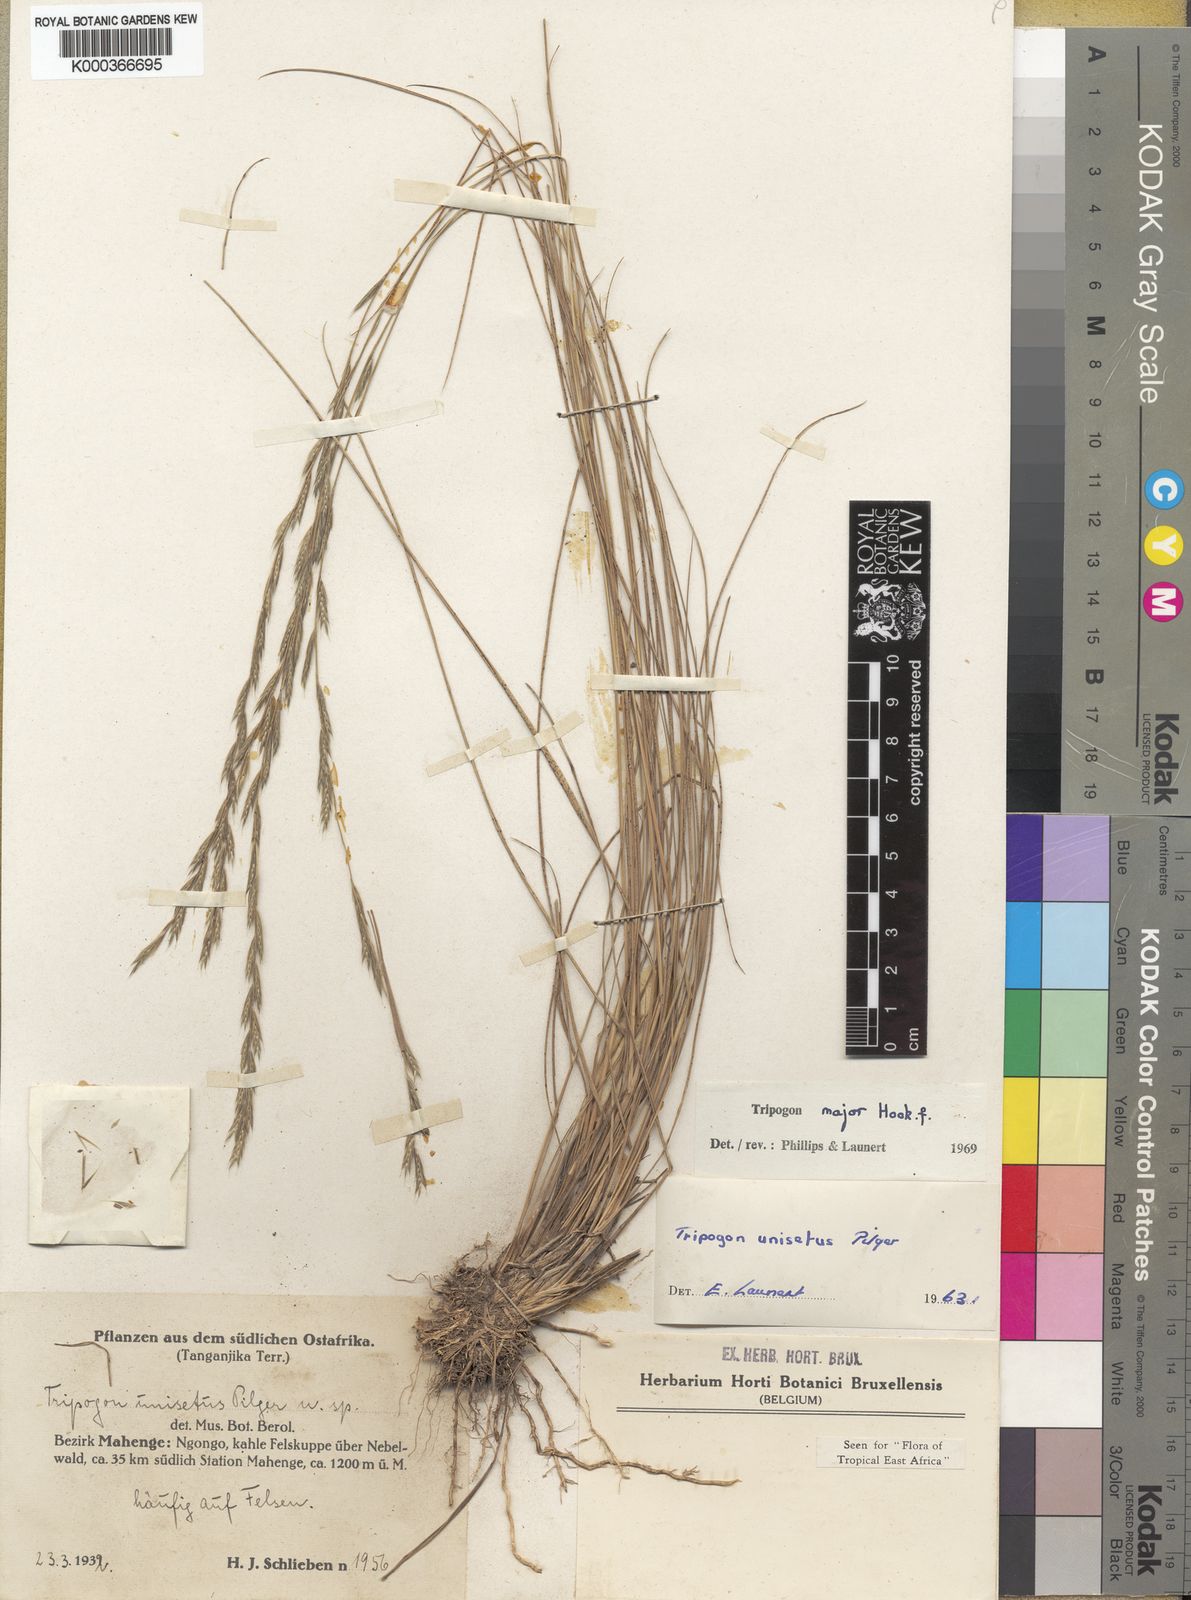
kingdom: Plantae
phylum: Tracheophyta
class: Liliopsida
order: Poales
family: Poaceae
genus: Tripogon
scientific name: Tripogon major
